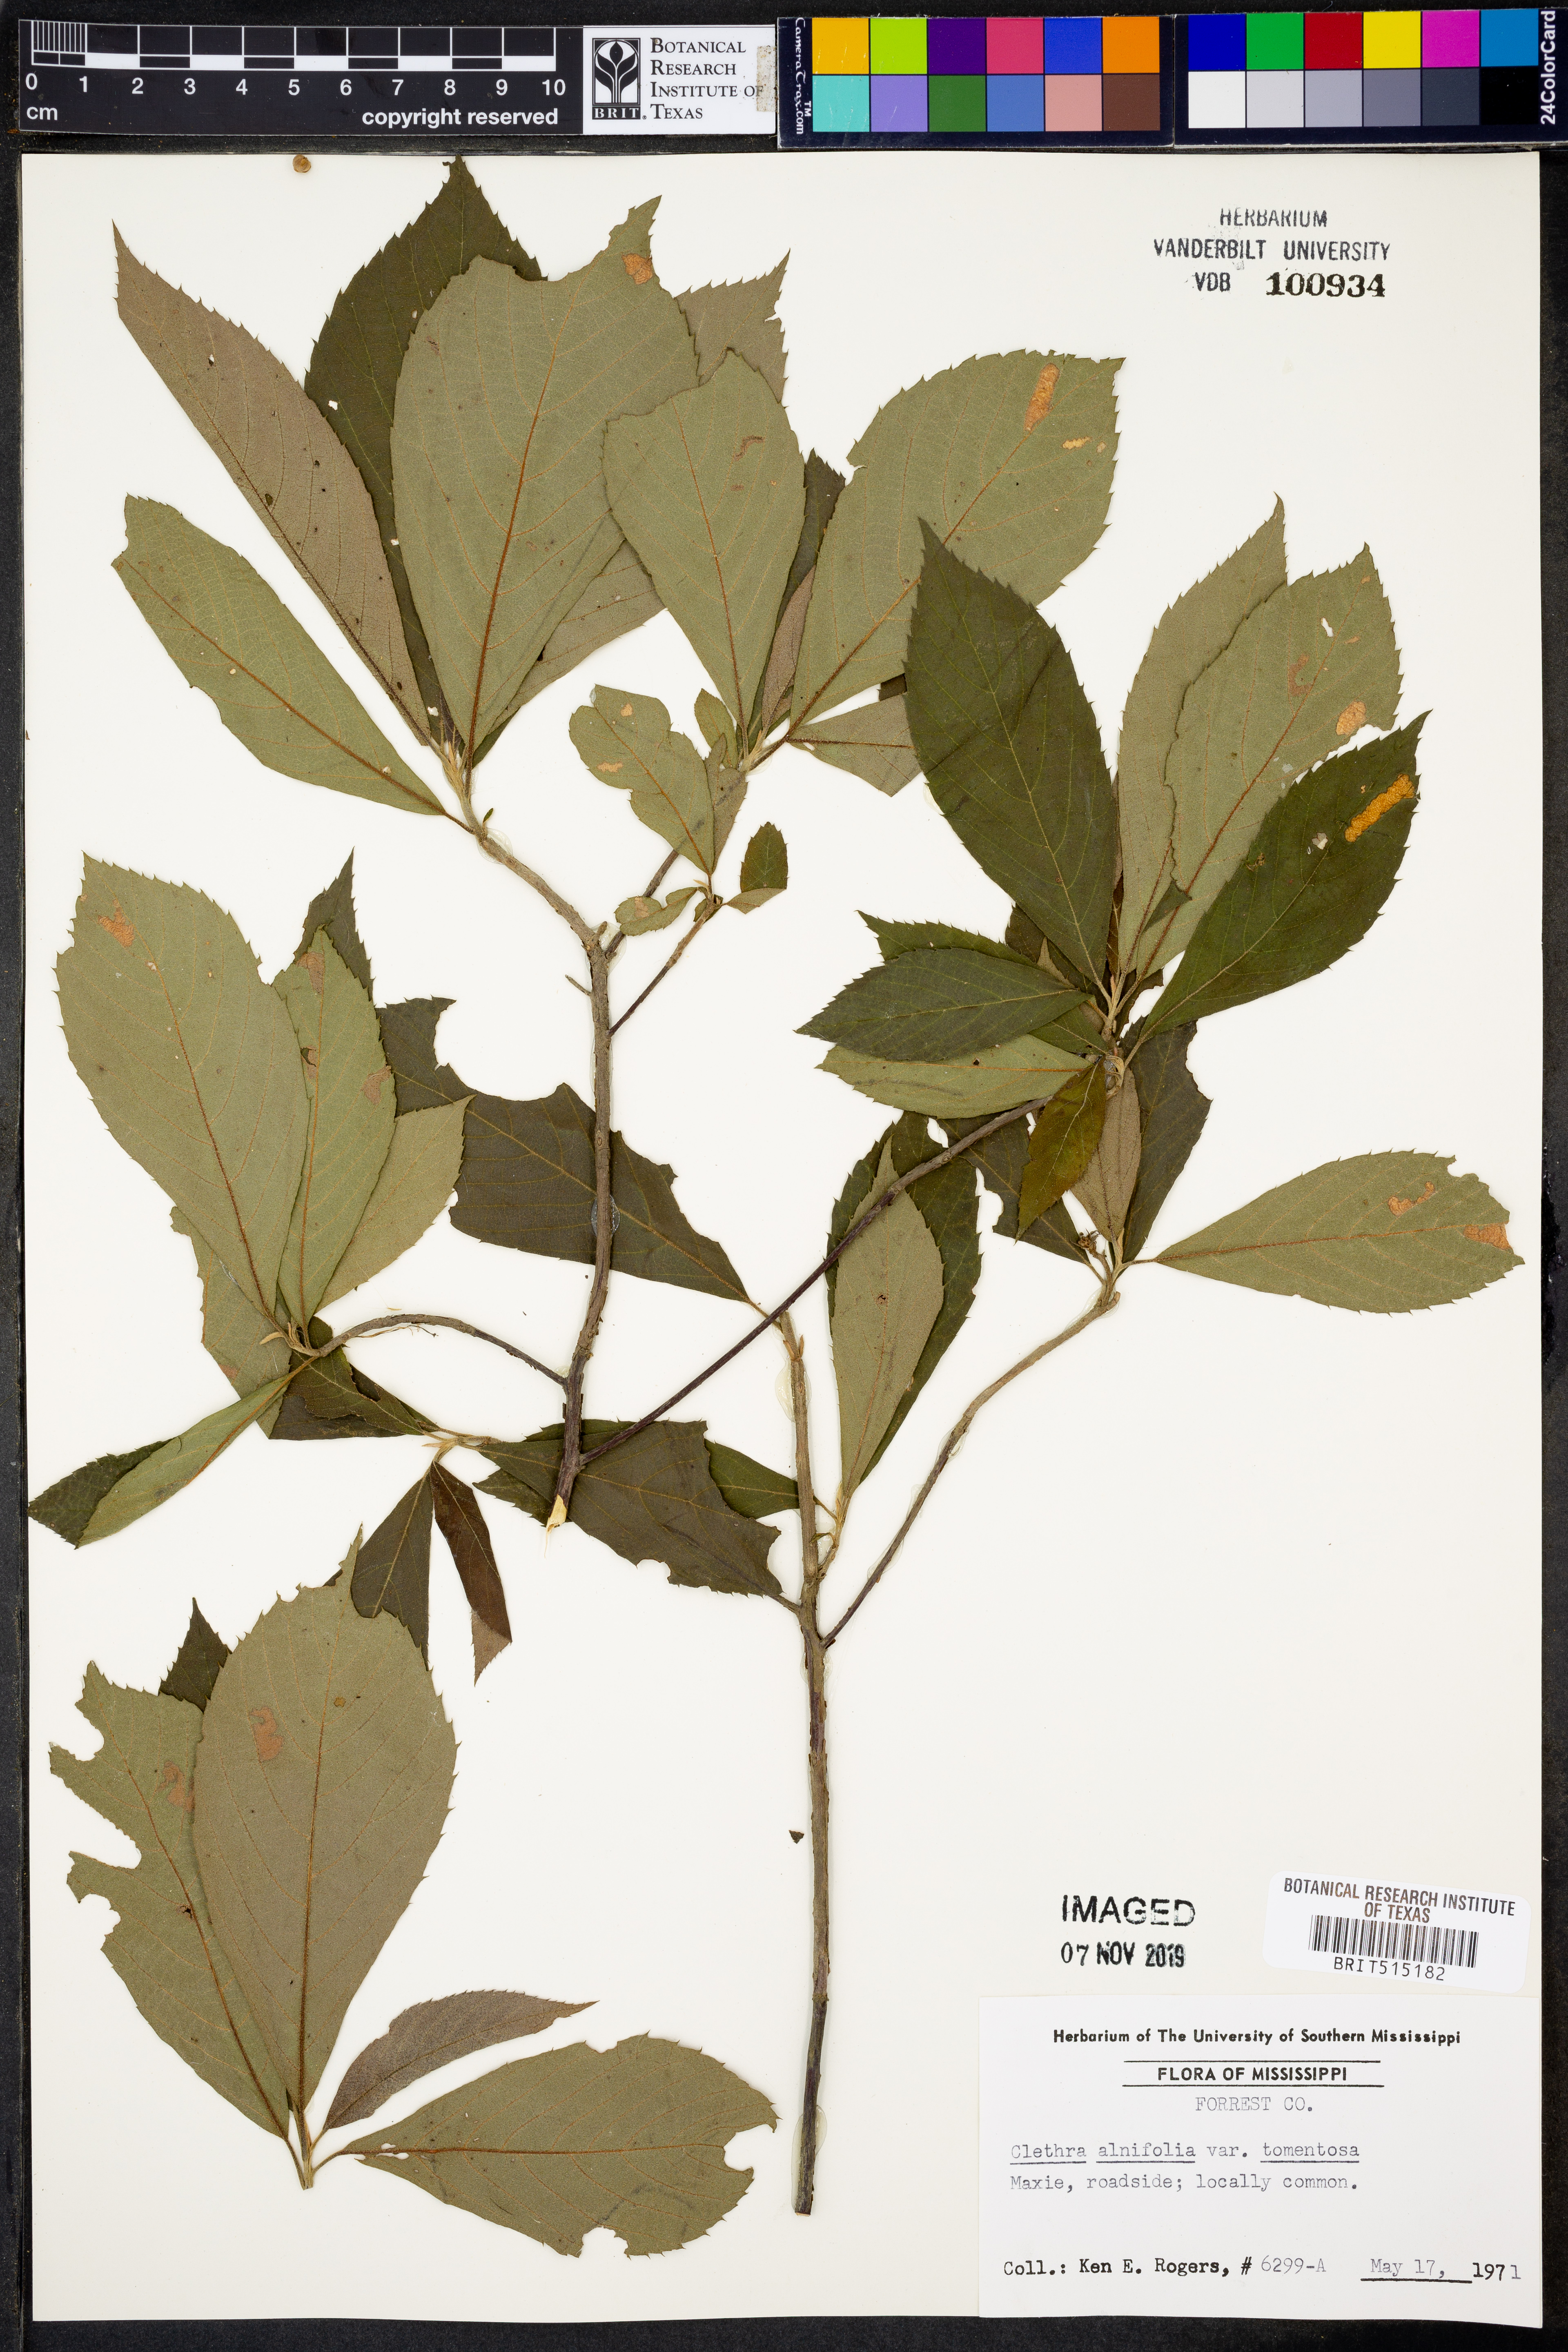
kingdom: Plantae
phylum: Tracheophyta
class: Magnoliopsida
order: Ericales
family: Clethraceae
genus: Clethra
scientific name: Clethra tomentosa
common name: Downy sweet pepperbush
